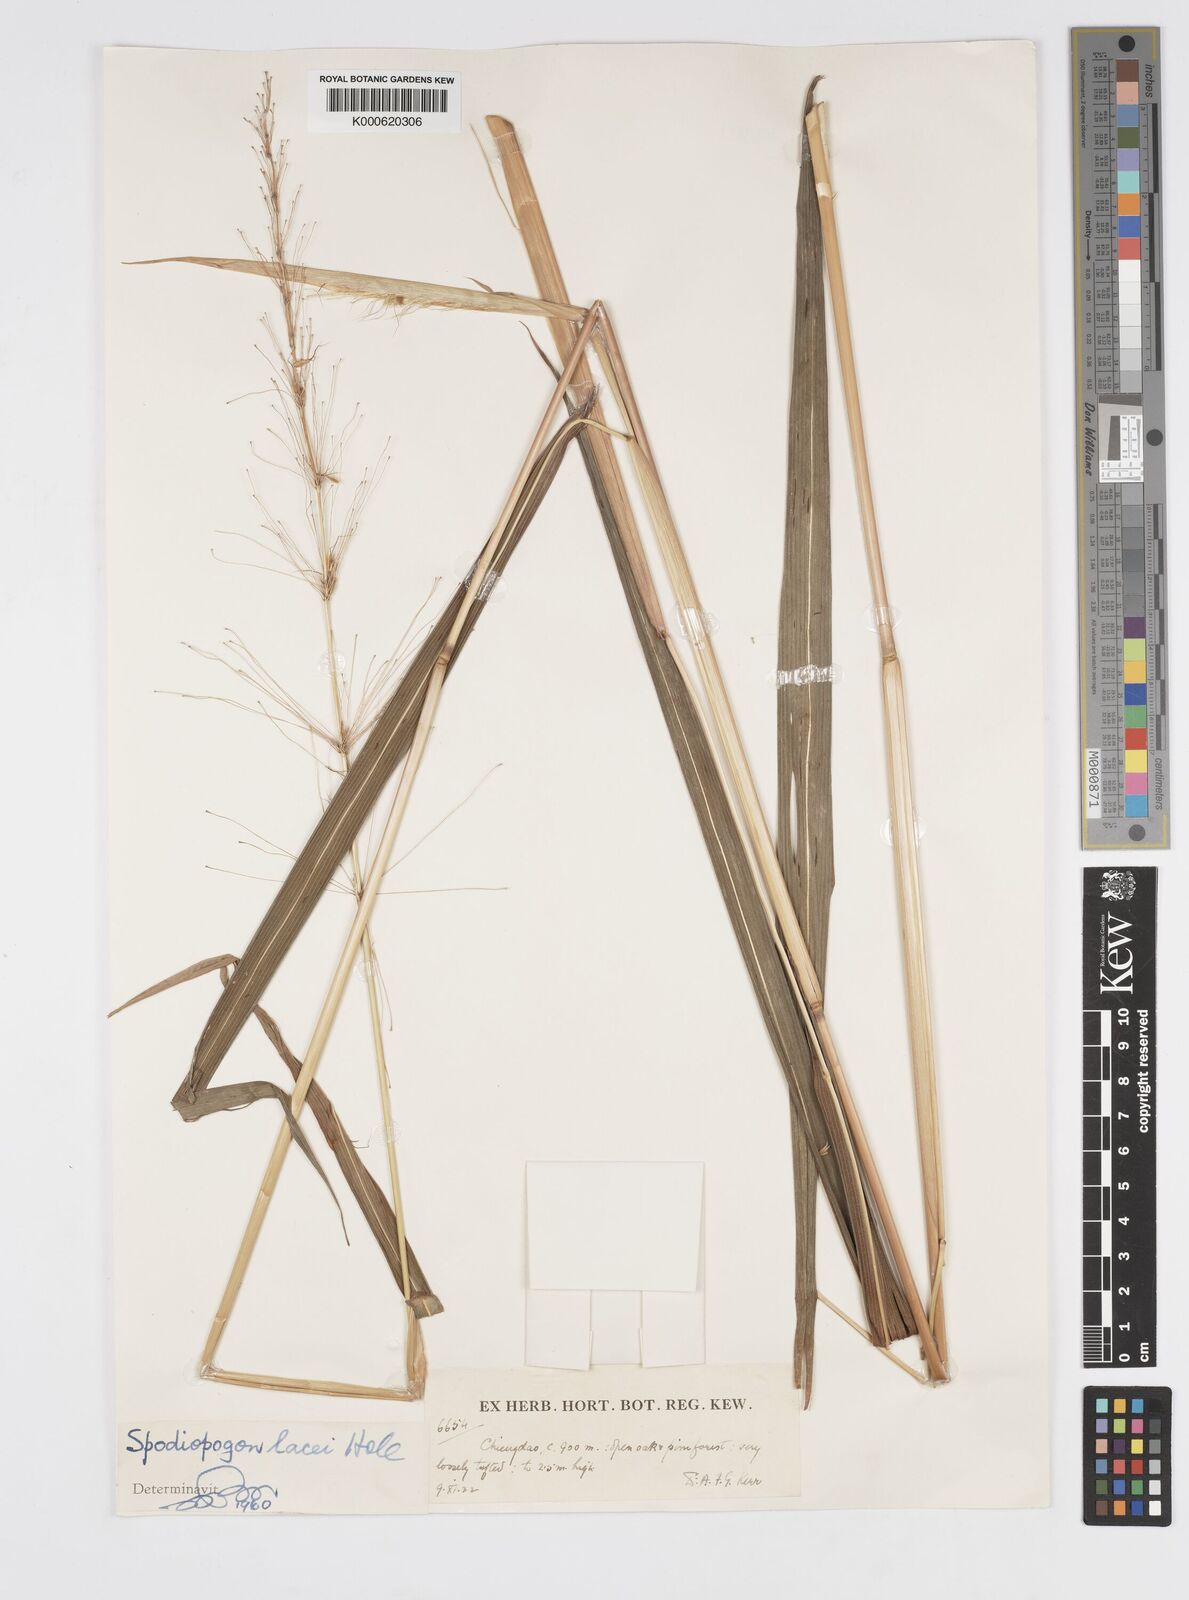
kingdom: Plantae
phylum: Tracheophyta
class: Liliopsida
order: Poales
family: Poaceae
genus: Spodiopogon
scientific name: Spodiopogon lacei
